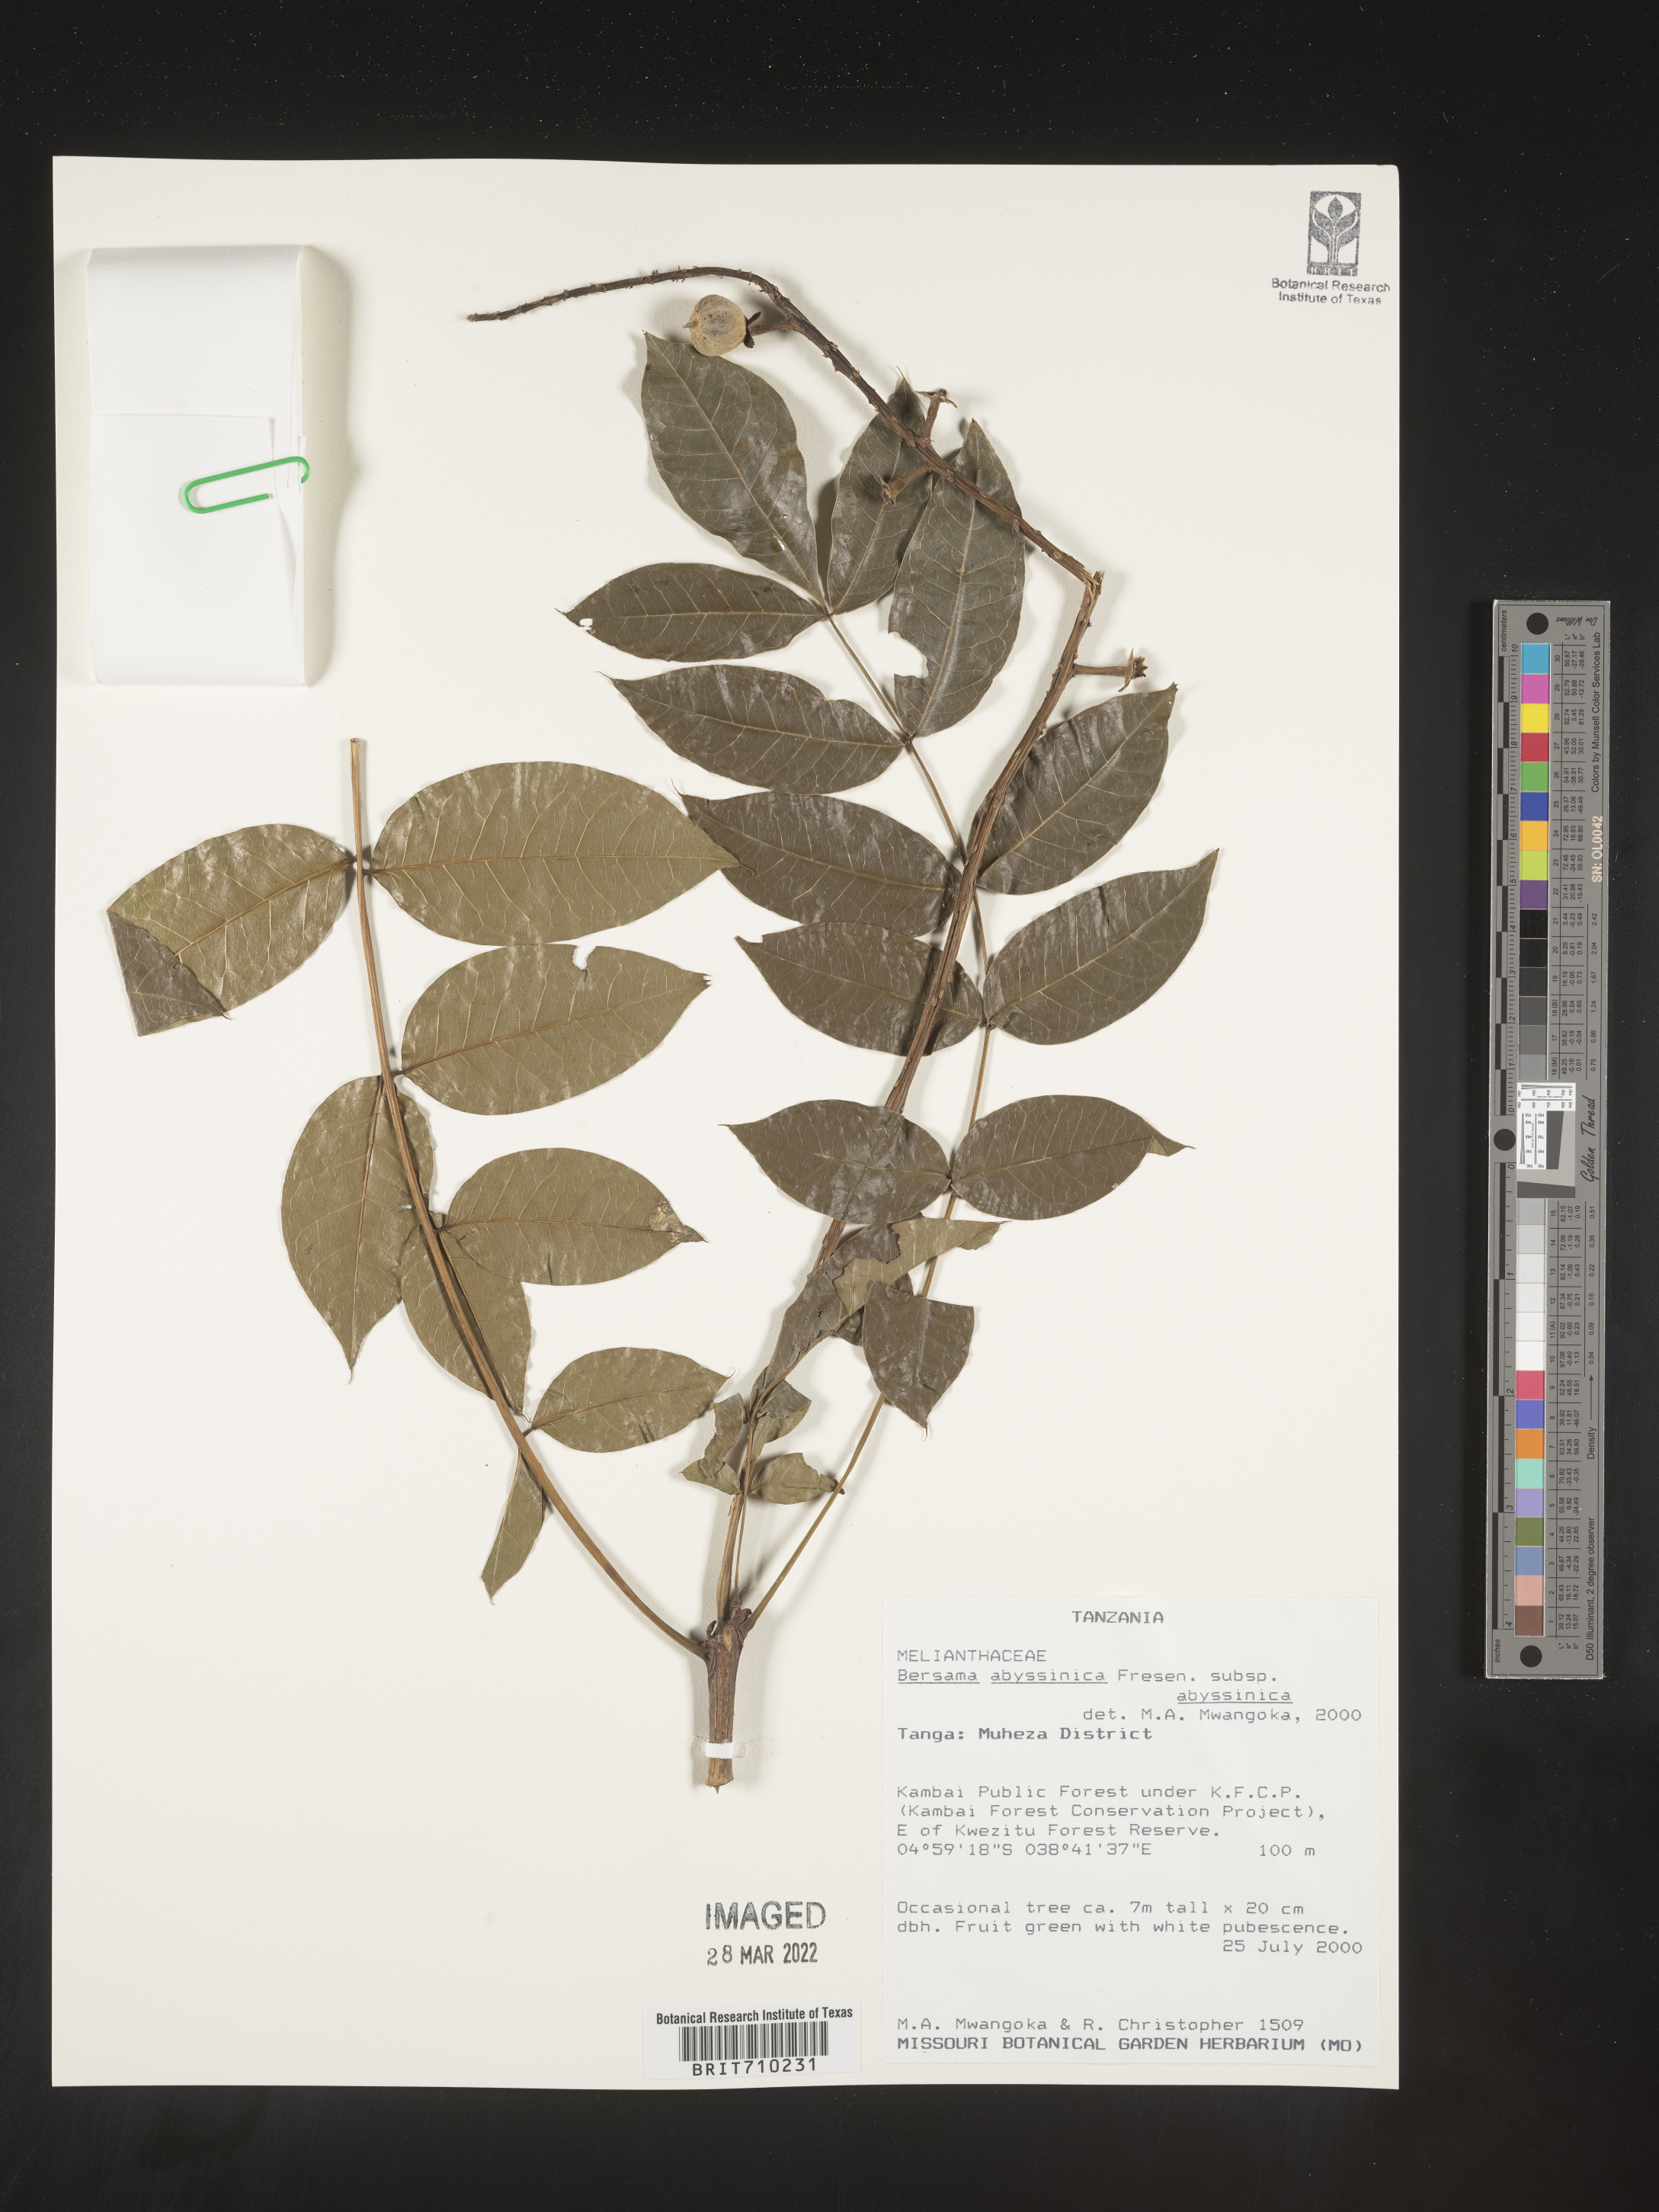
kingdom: Plantae
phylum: Tracheophyta
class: Magnoliopsida
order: Geraniales
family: Melianthaceae
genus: Bersama
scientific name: Bersama
